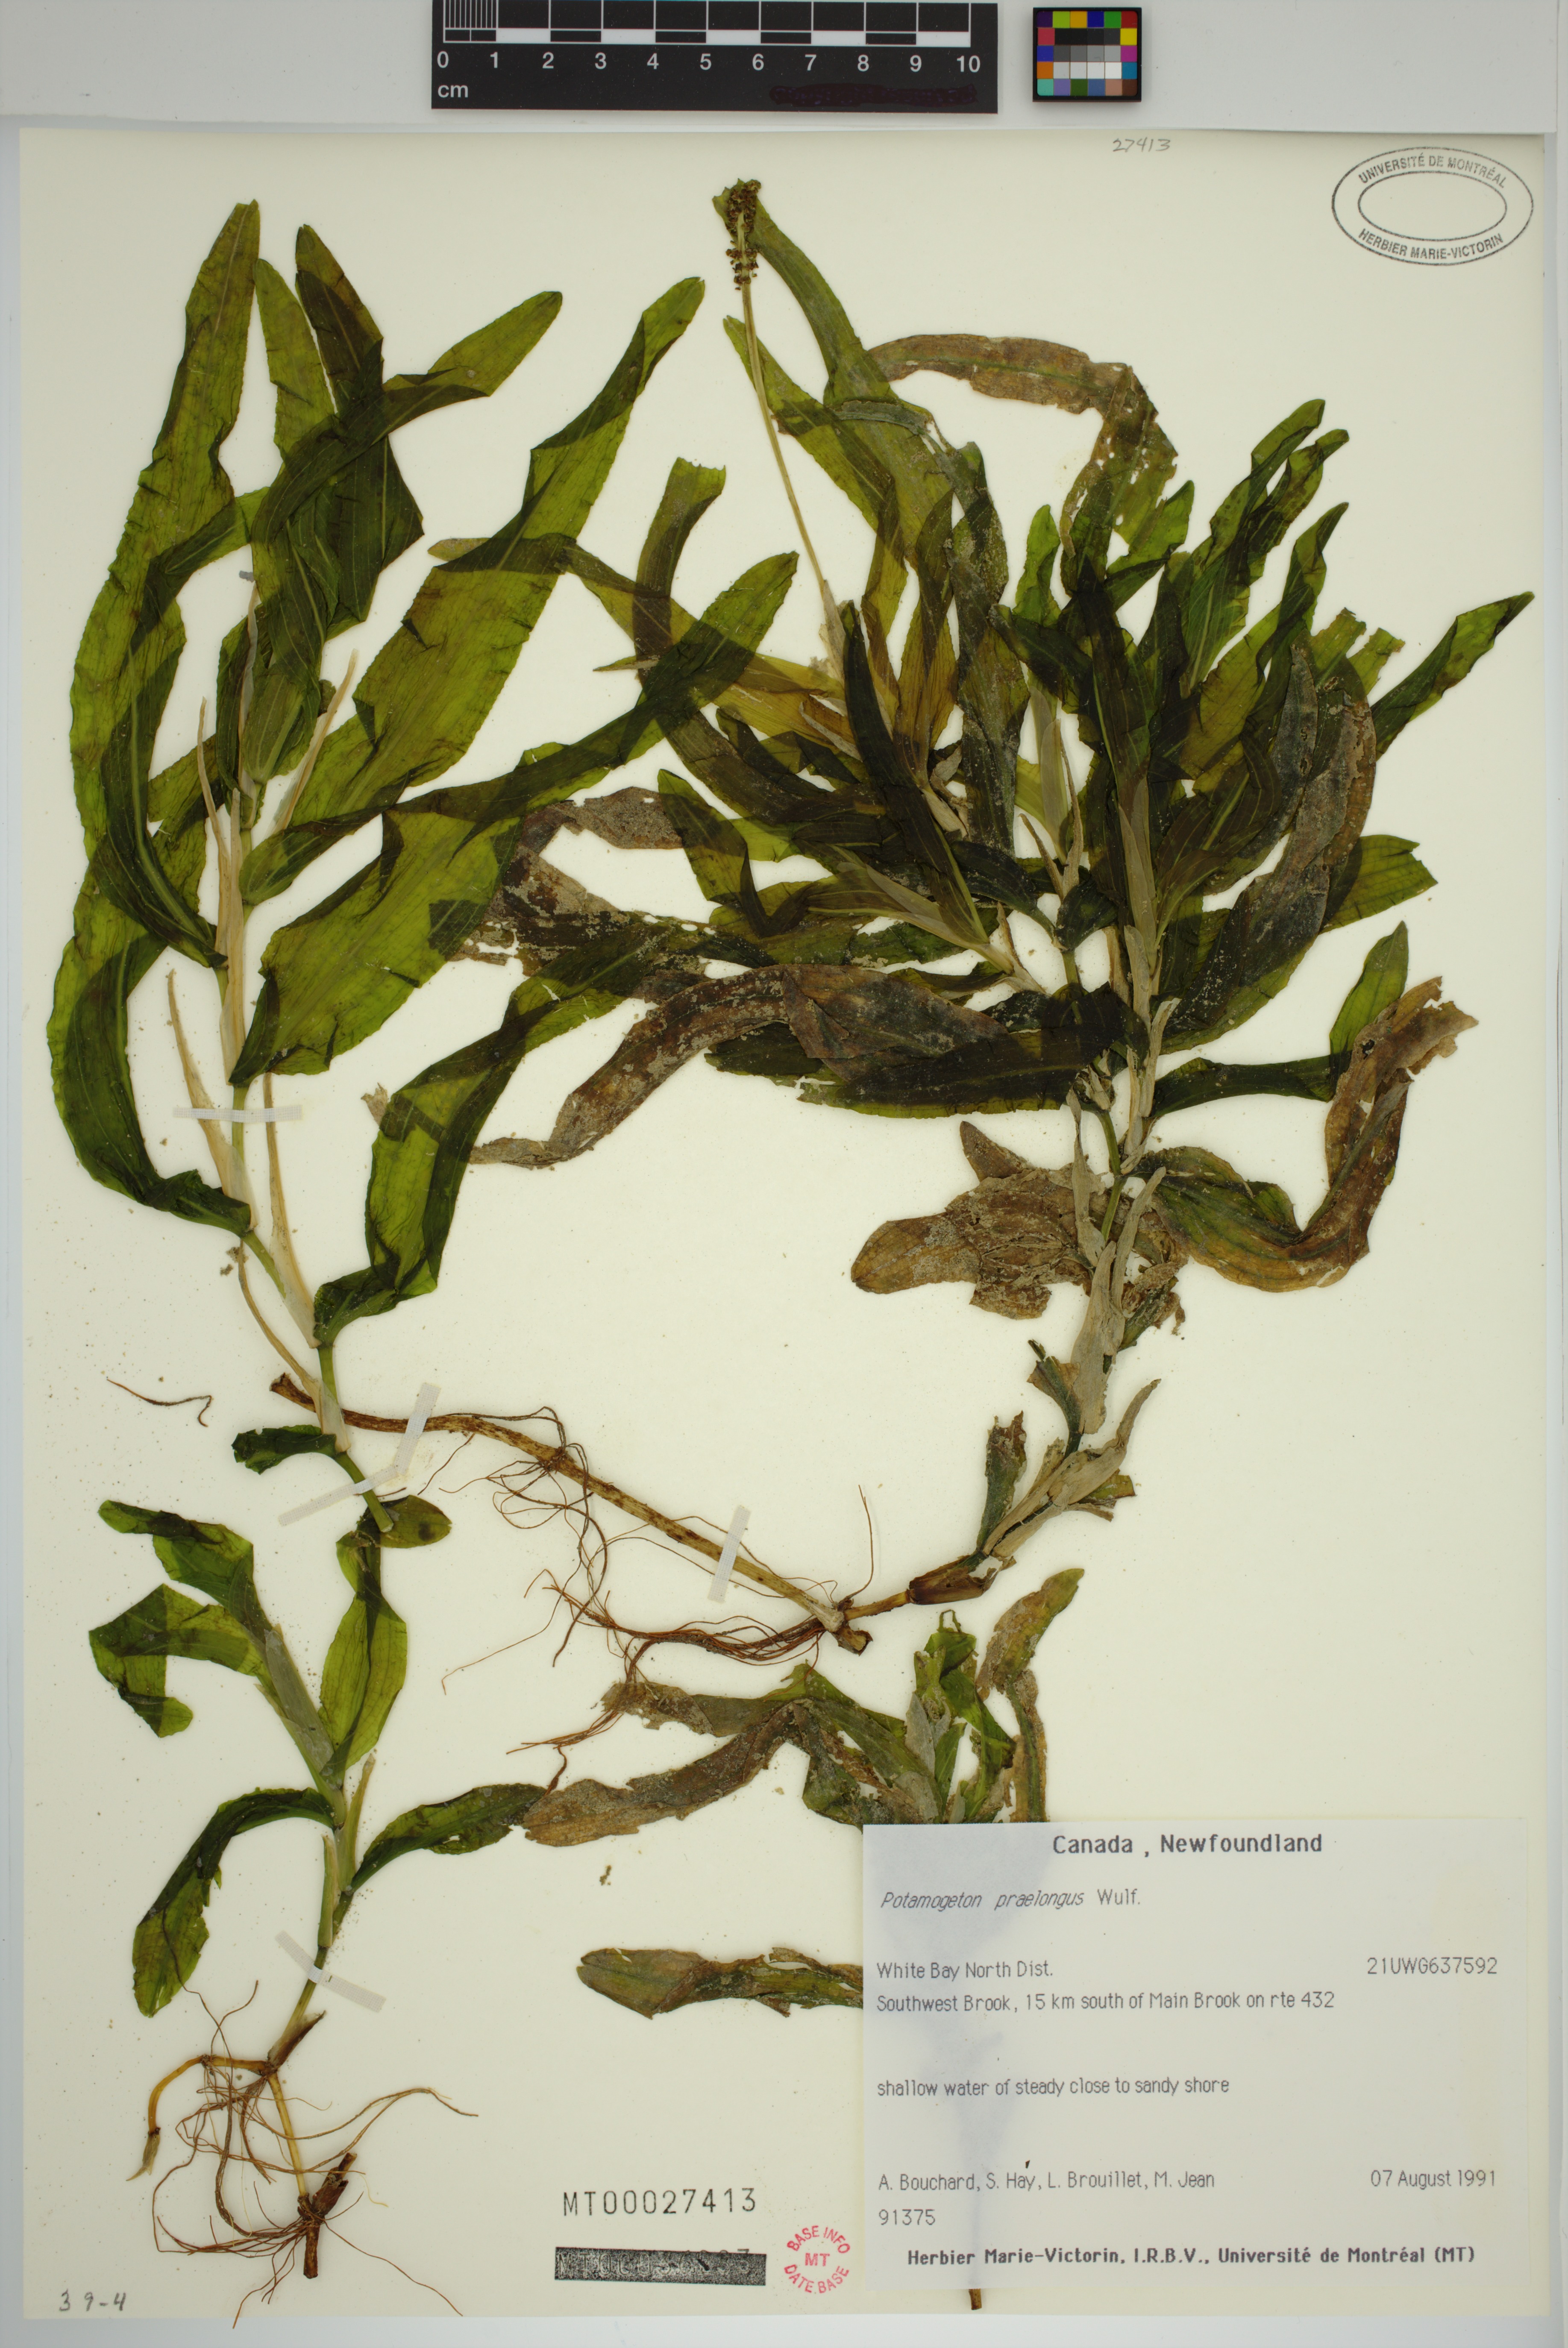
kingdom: Plantae
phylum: Tracheophyta
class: Liliopsida
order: Alismatales
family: Potamogetonaceae
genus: Potamogeton
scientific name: Potamogeton praelongus
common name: Long-stalked pondweed
